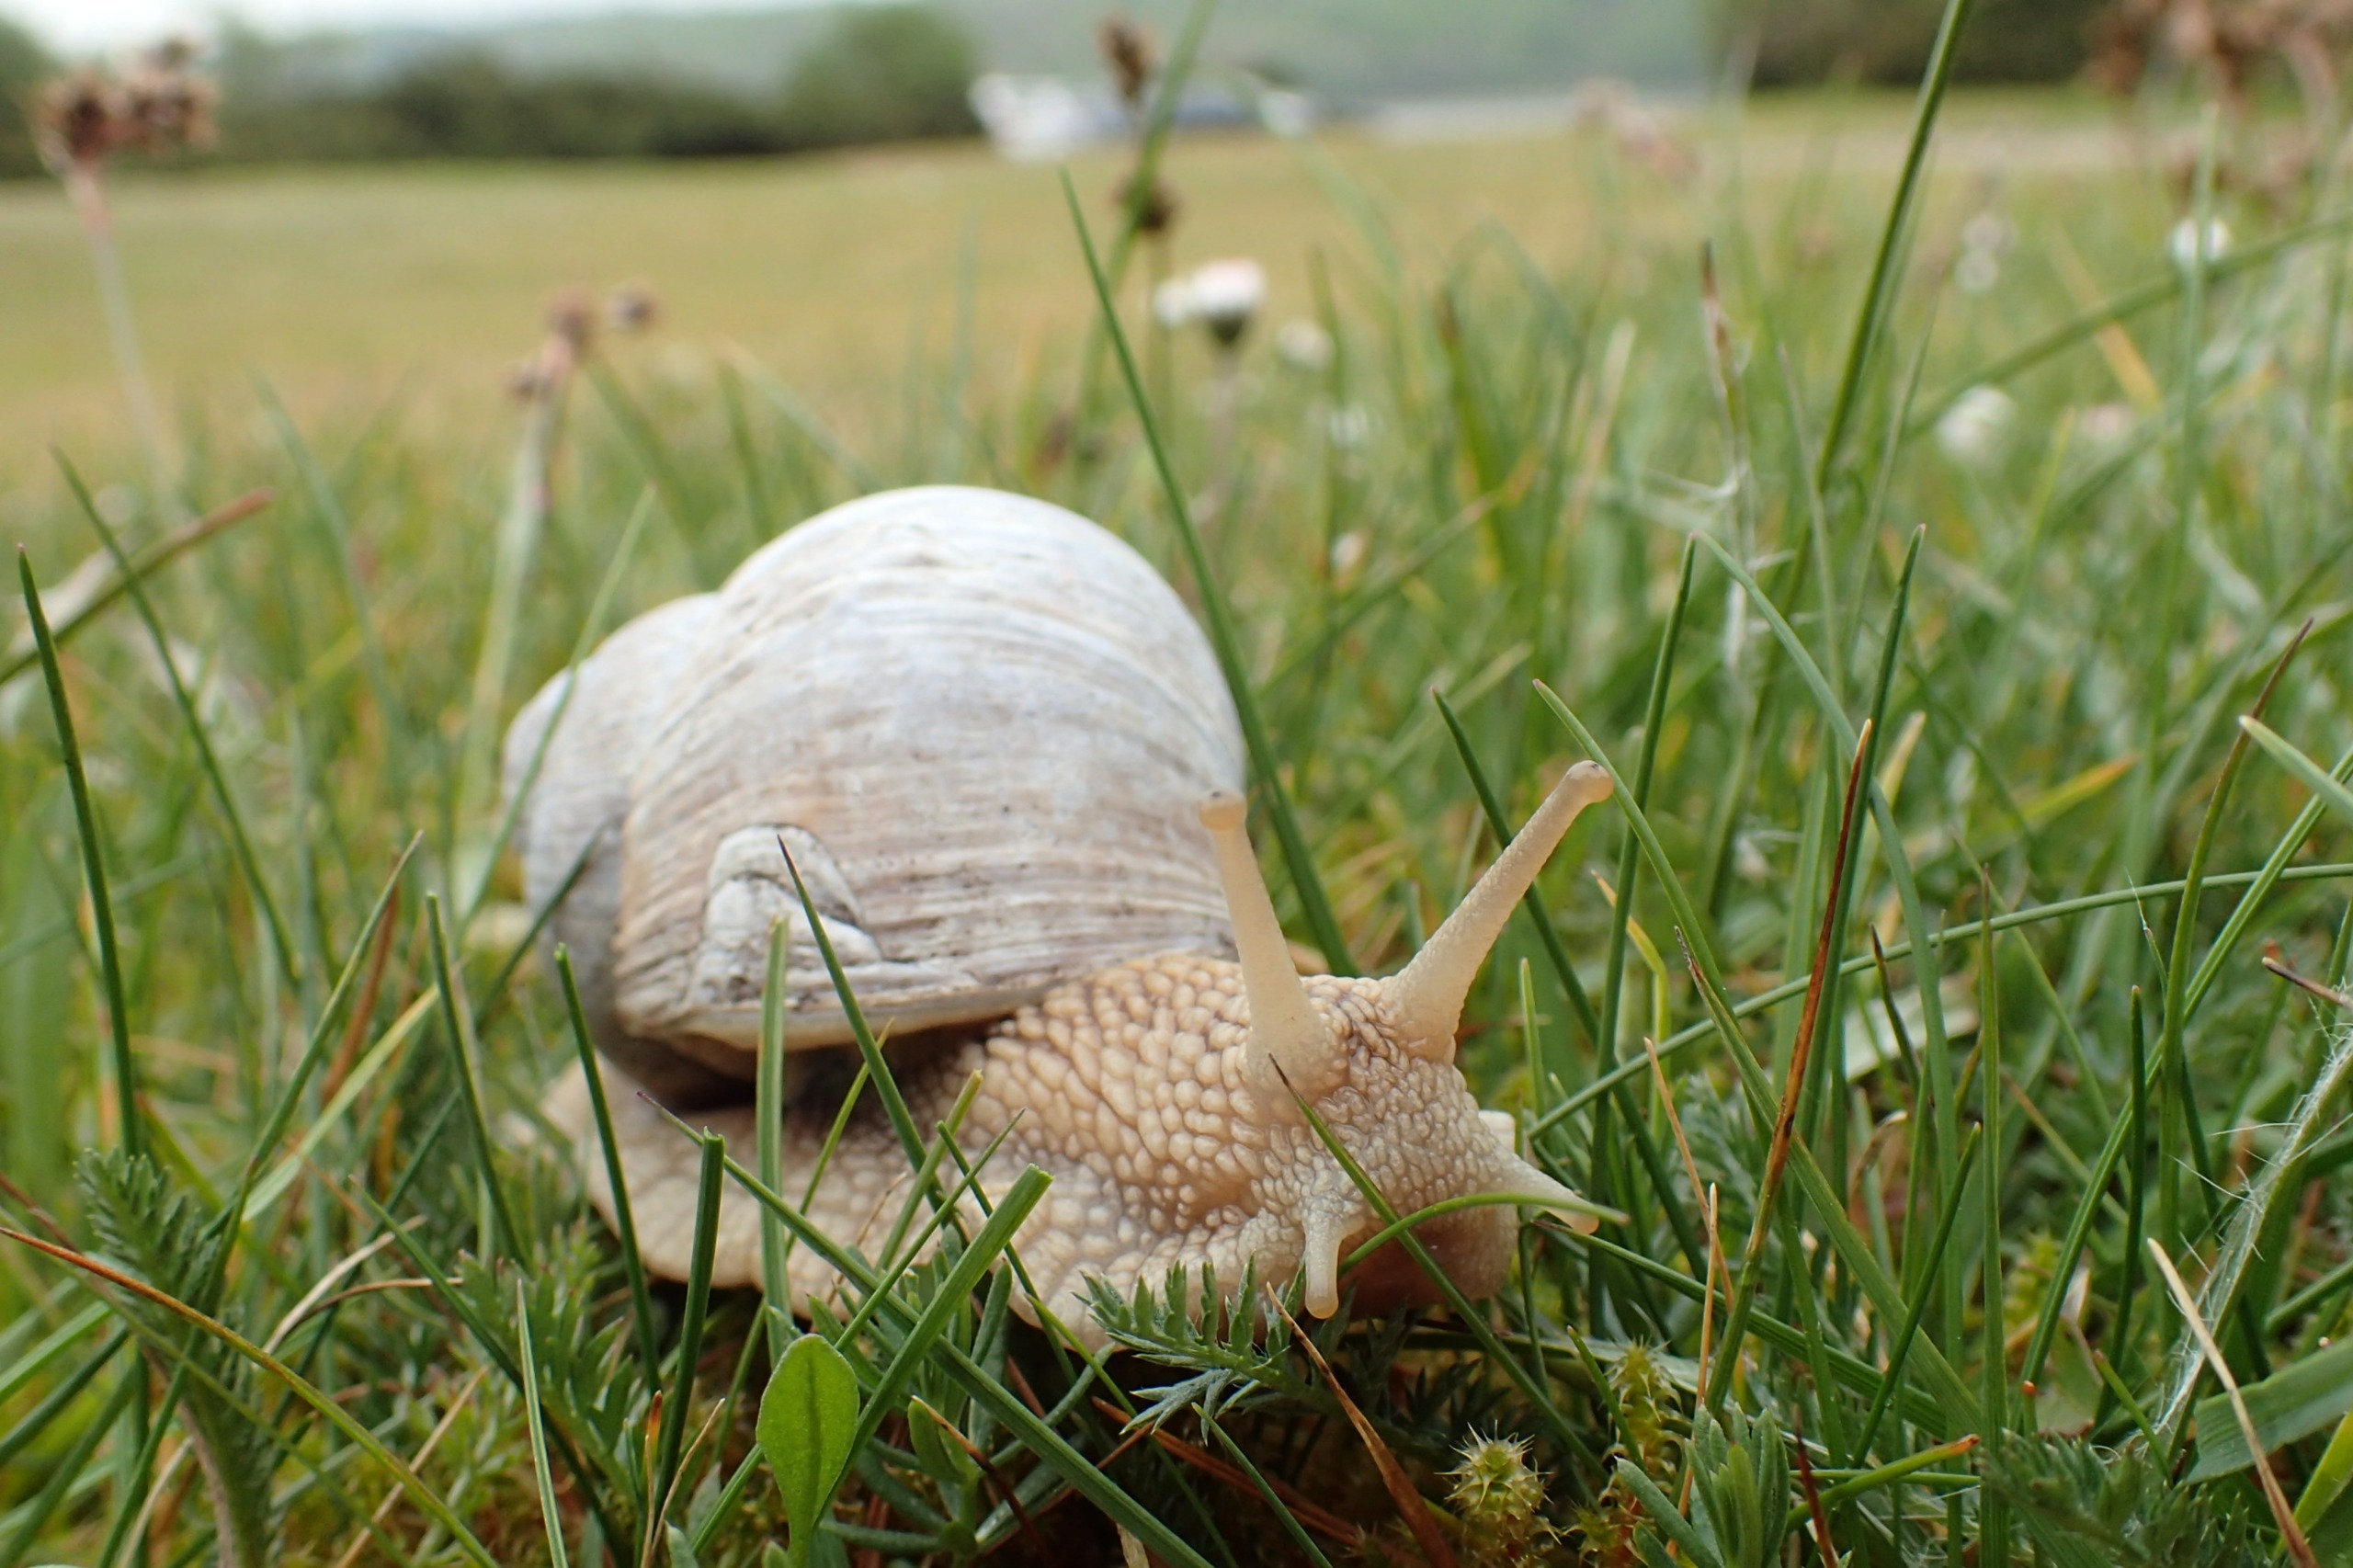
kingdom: Animalia
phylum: Mollusca
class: Gastropoda
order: Stylommatophora
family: Helicidae
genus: Helix
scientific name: Helix pomatia
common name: Vinbjergsnegl
